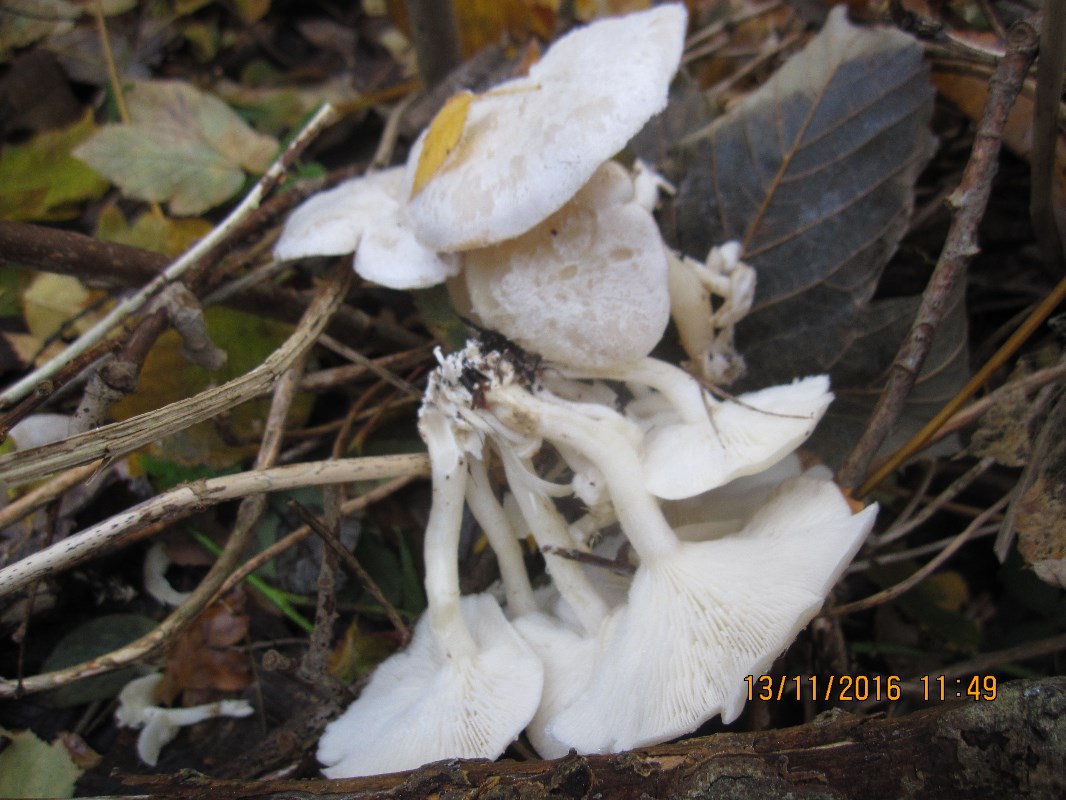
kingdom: Fungi
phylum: Basidiomycota
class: Agaricomycetes
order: Agaricales
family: Tricholomataceae
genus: Leucocybe
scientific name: Leucocybe connata
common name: knippe-tragthat
